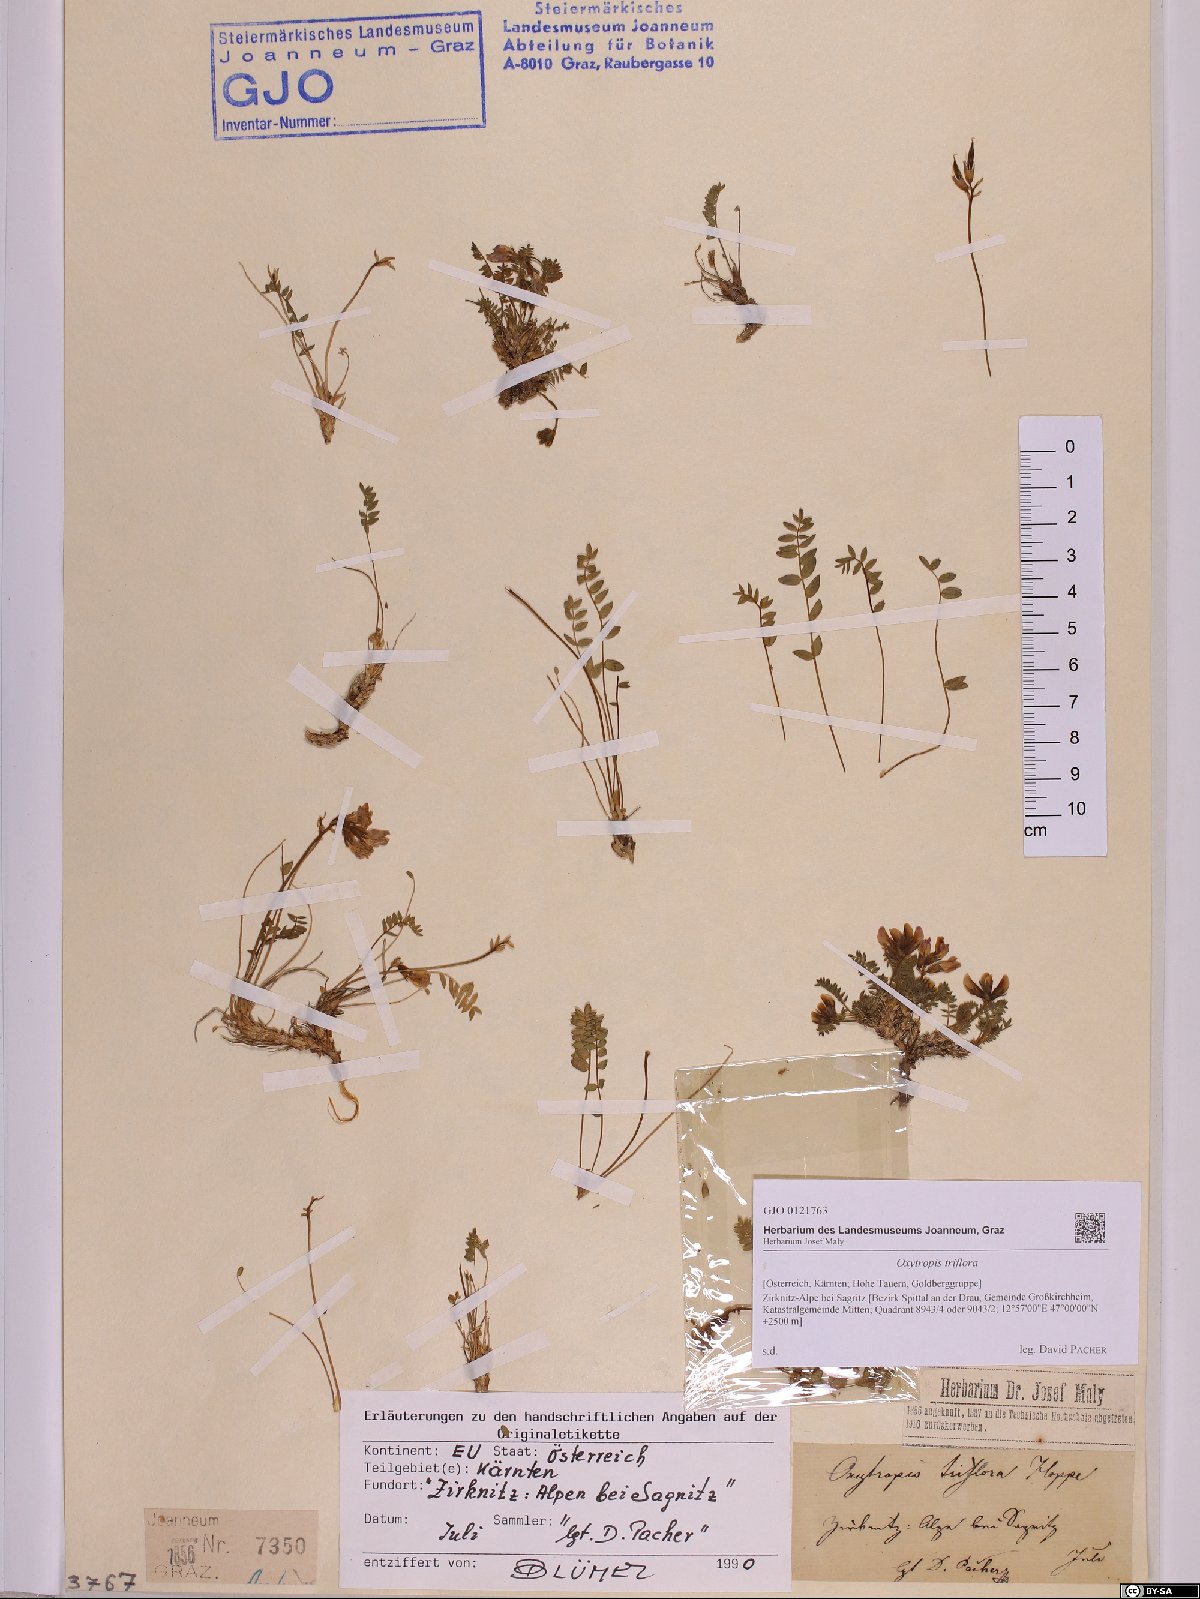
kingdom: Plantae
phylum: Tracheophyta
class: Magnoliopsida
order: Fabales
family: Fabaceae
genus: Oxytropis
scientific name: Oxytropis triflora
